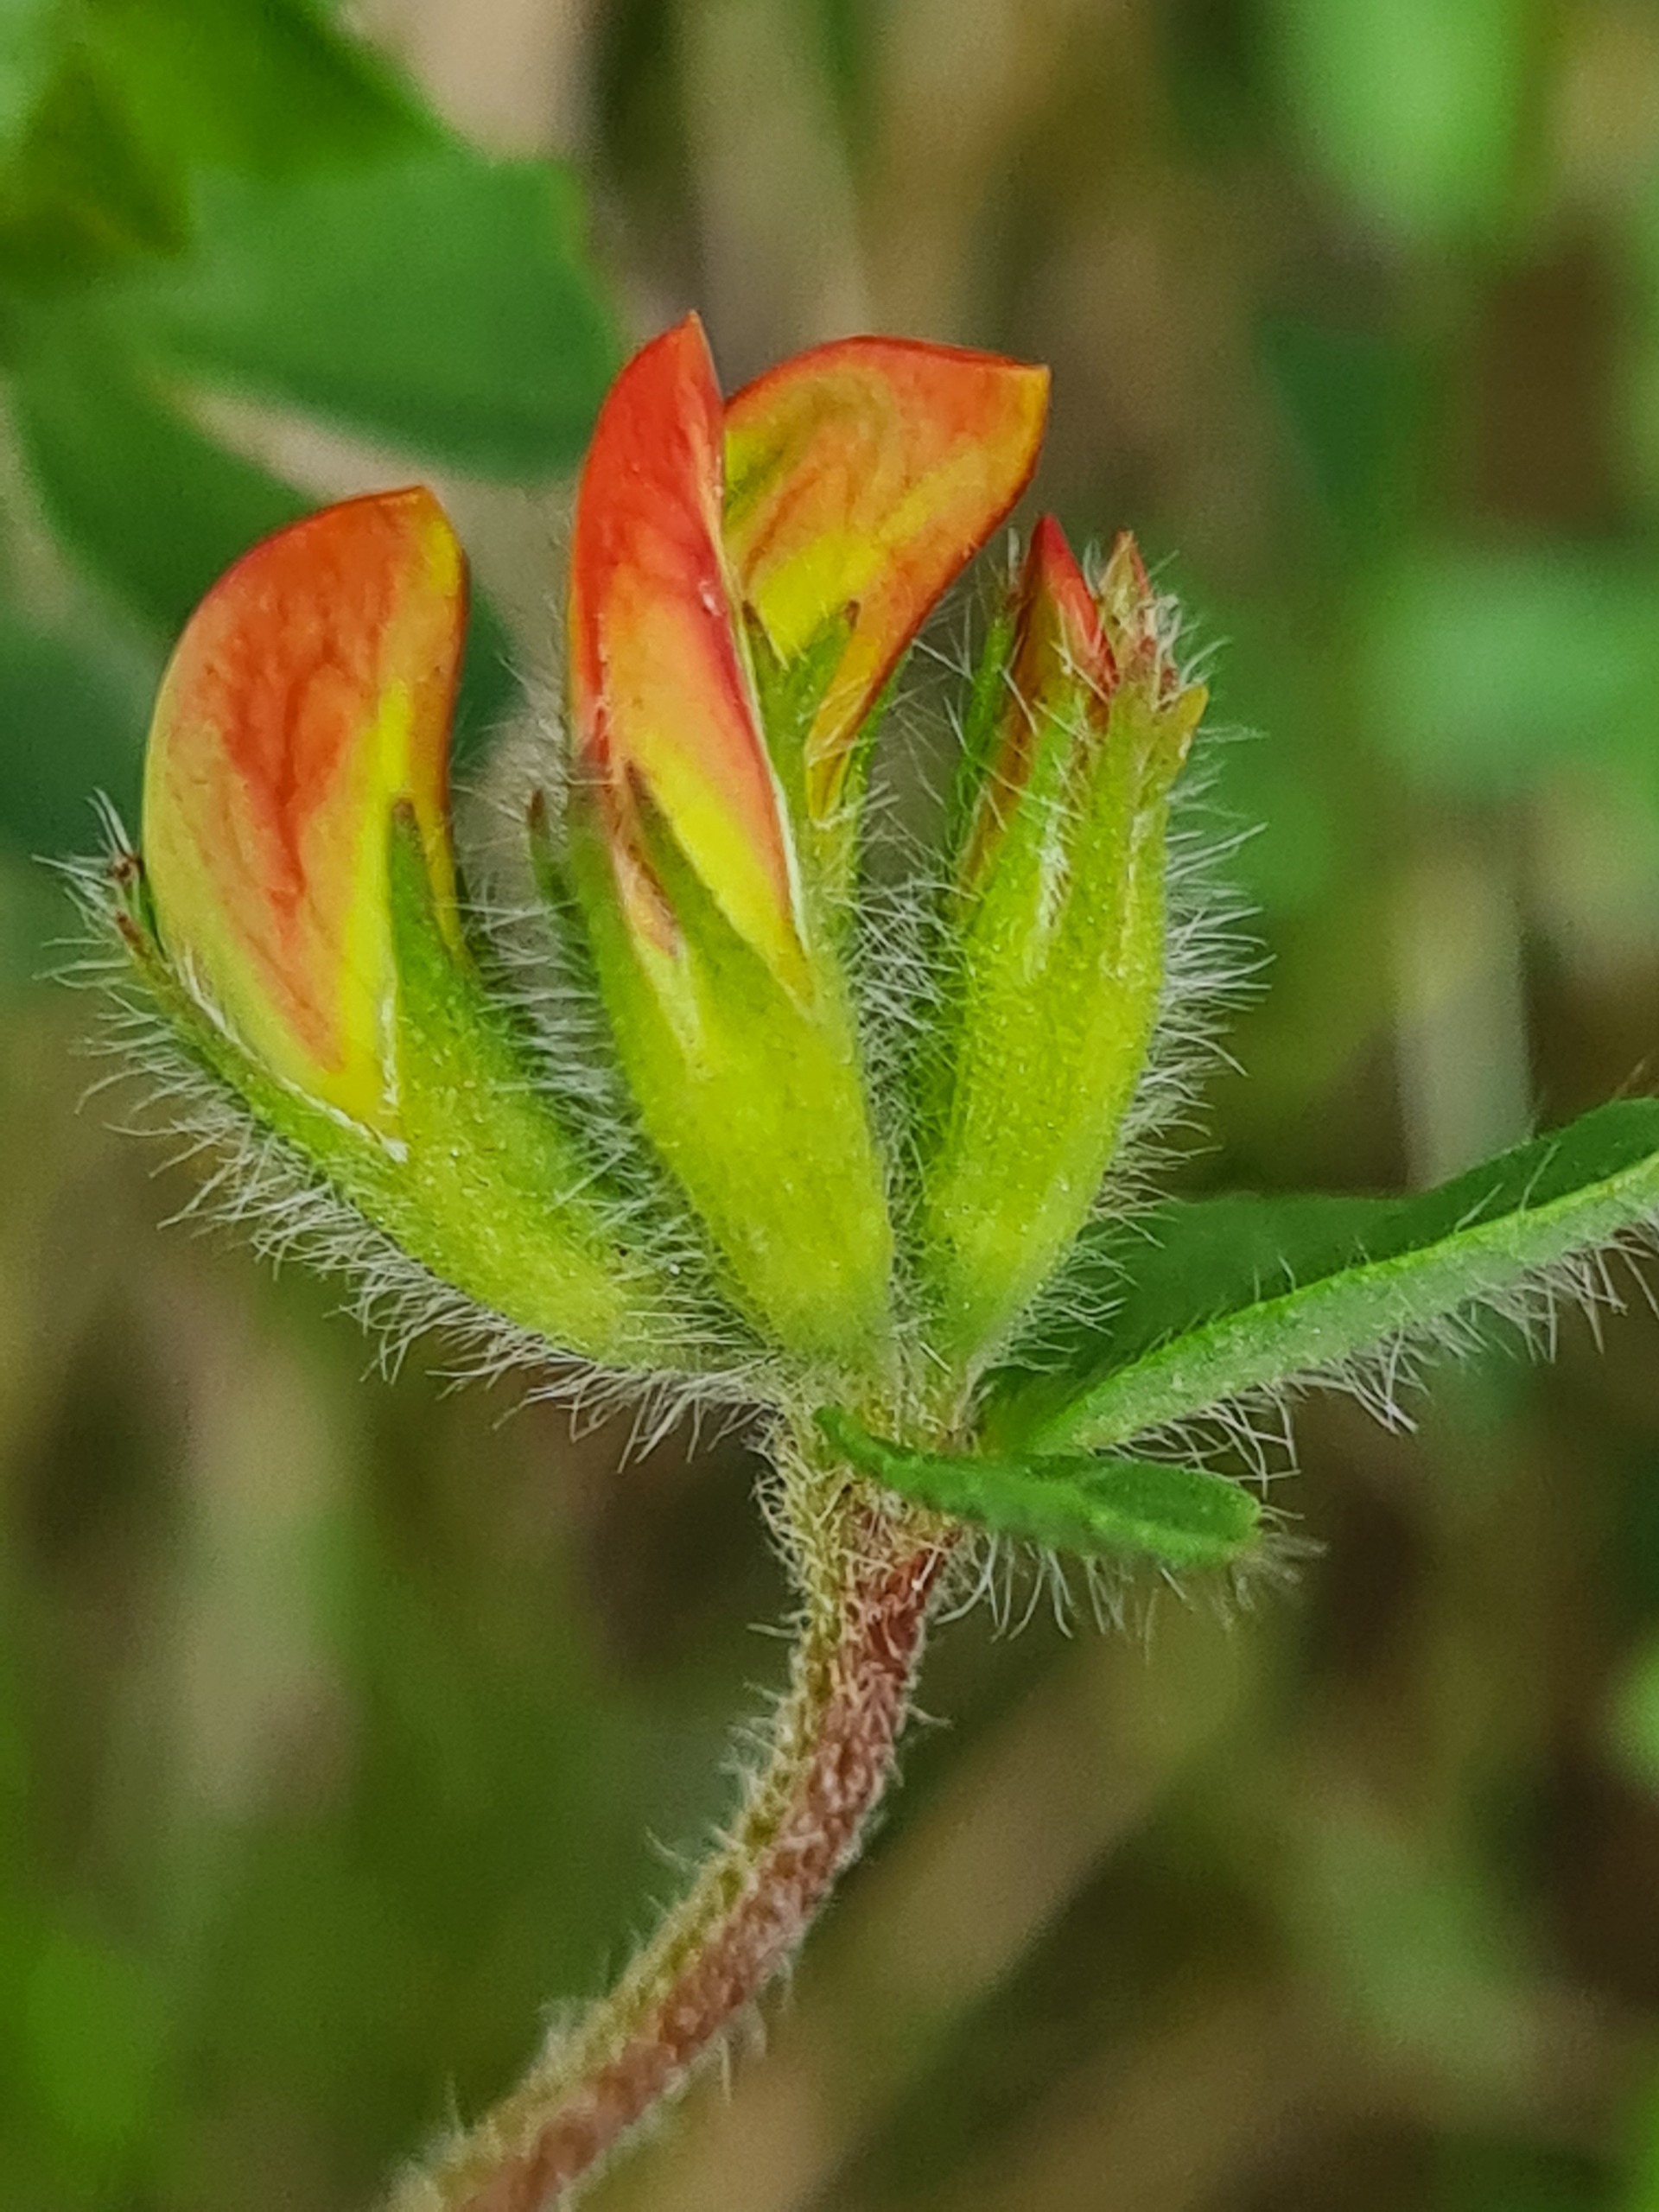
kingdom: Plantae
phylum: Tracheophyta
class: Magnoliopsida
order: Fabales
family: Fabaceae
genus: Lotus
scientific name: Lotus corniculatus
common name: Almindelig kællingetand
